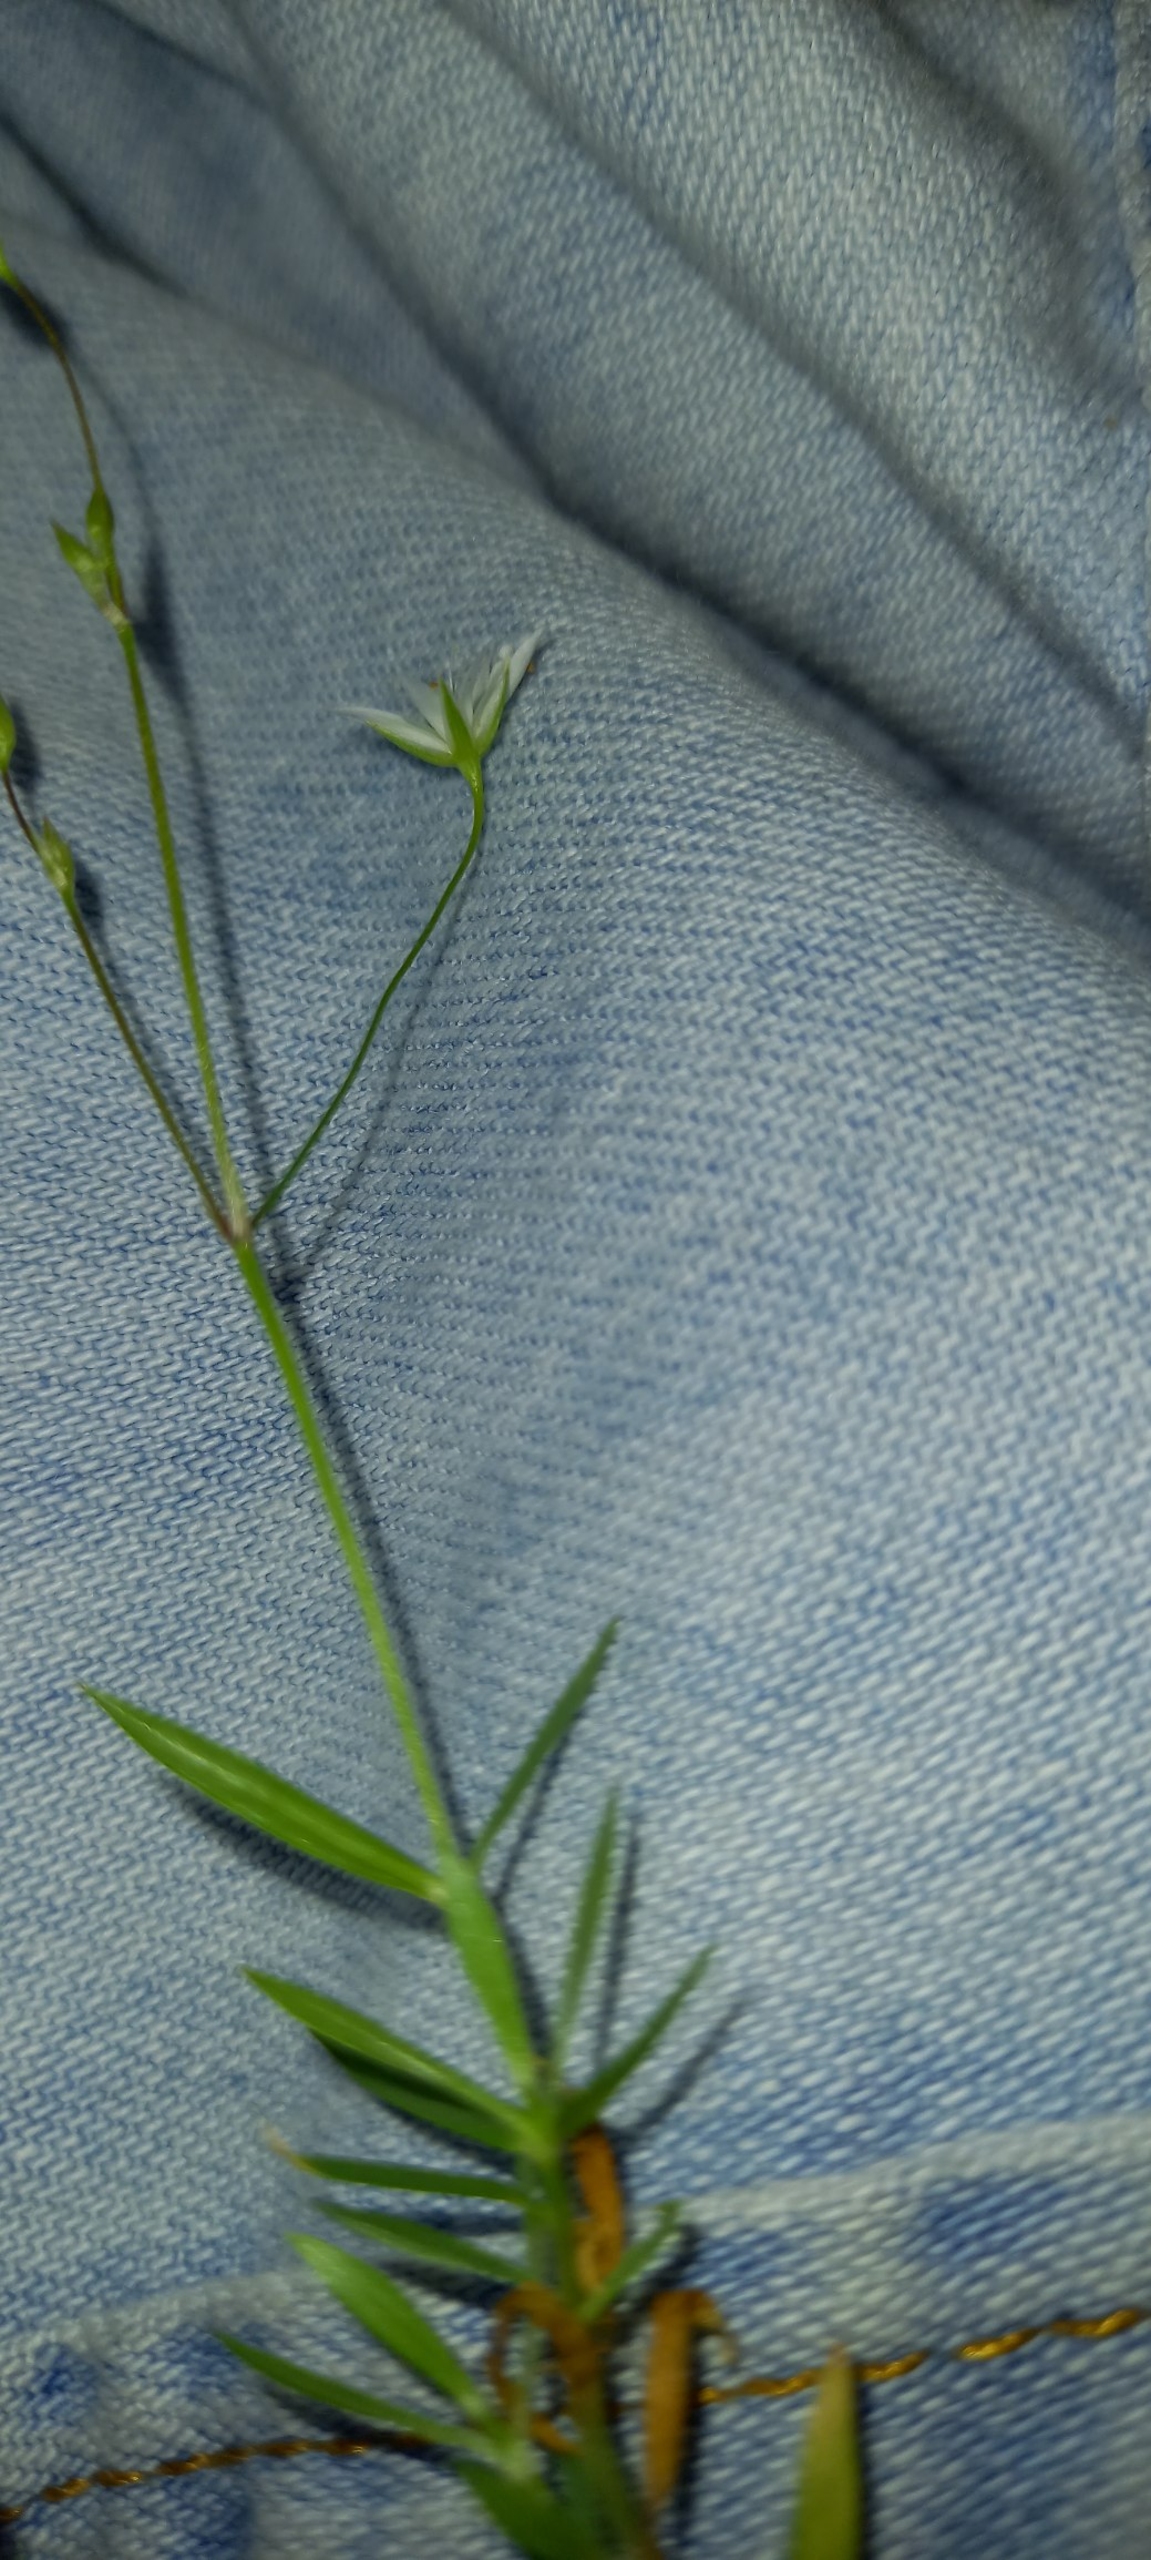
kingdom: Plantae
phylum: Tracheophyta
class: Magnoliopsida
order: Caryophyllales
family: Caryophyllaceae
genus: Stellaria
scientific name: Stellaria graminea
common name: Græsbladet fladstjerne
